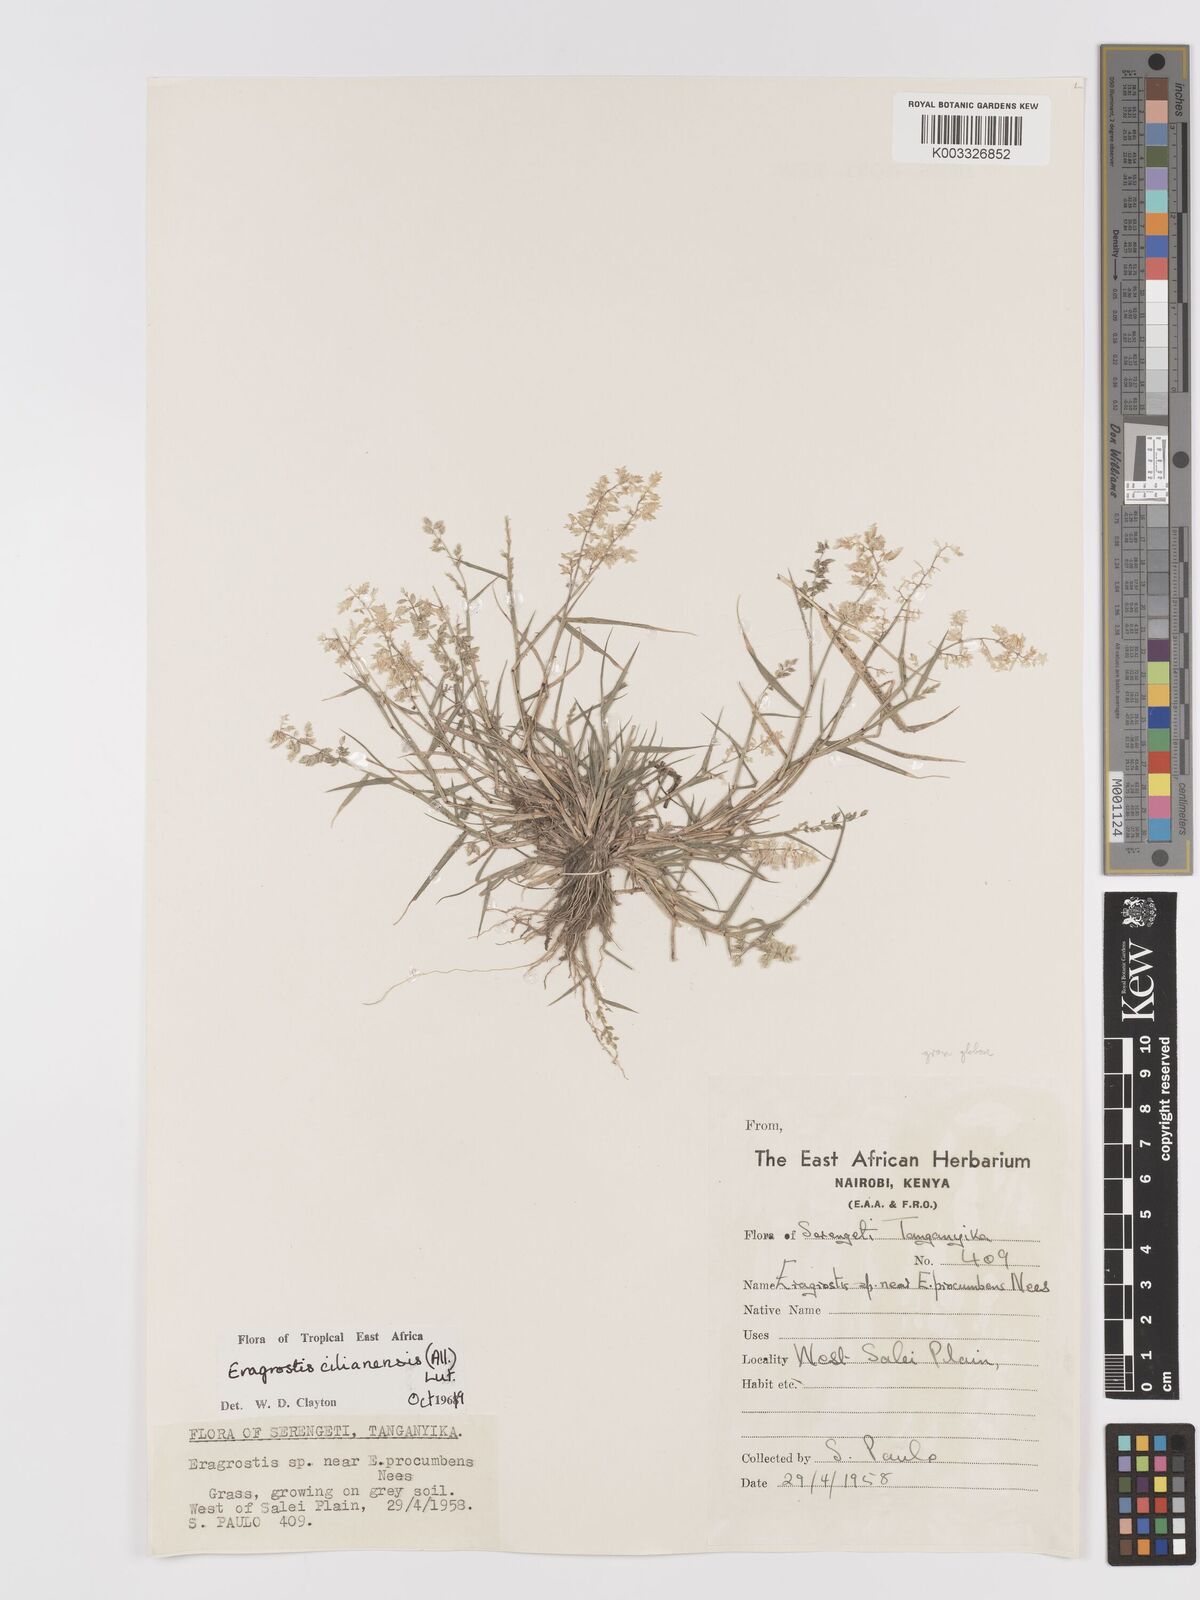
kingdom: Plantae
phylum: Tracheophyta
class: Liliopsida
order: Poales
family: Poaceae
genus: Eragrostis
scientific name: Eragrostis cilianensis
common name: Stinkgrass
